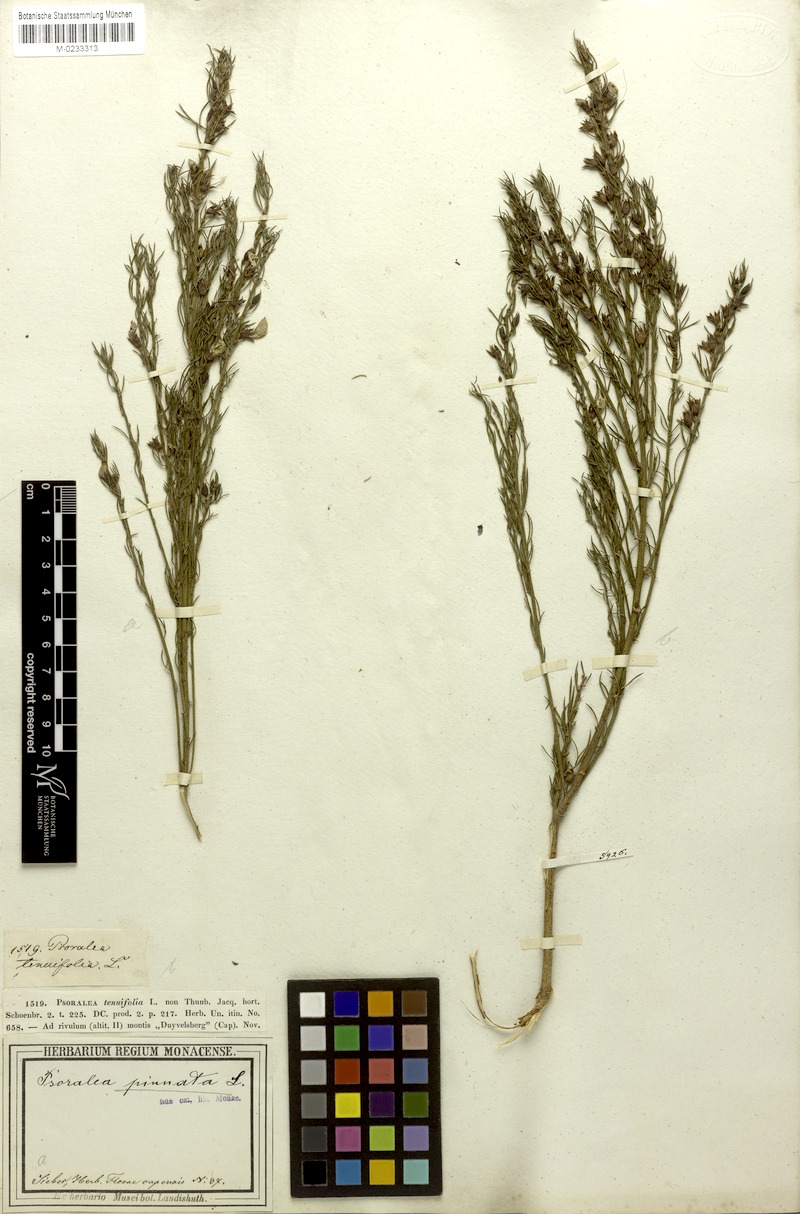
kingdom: Plantae
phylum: Tracheophyta
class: Magnoliopsida
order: Fabales
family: Fabaceae
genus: Psoralea
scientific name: Psoralea pinnata
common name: African scurfpea
